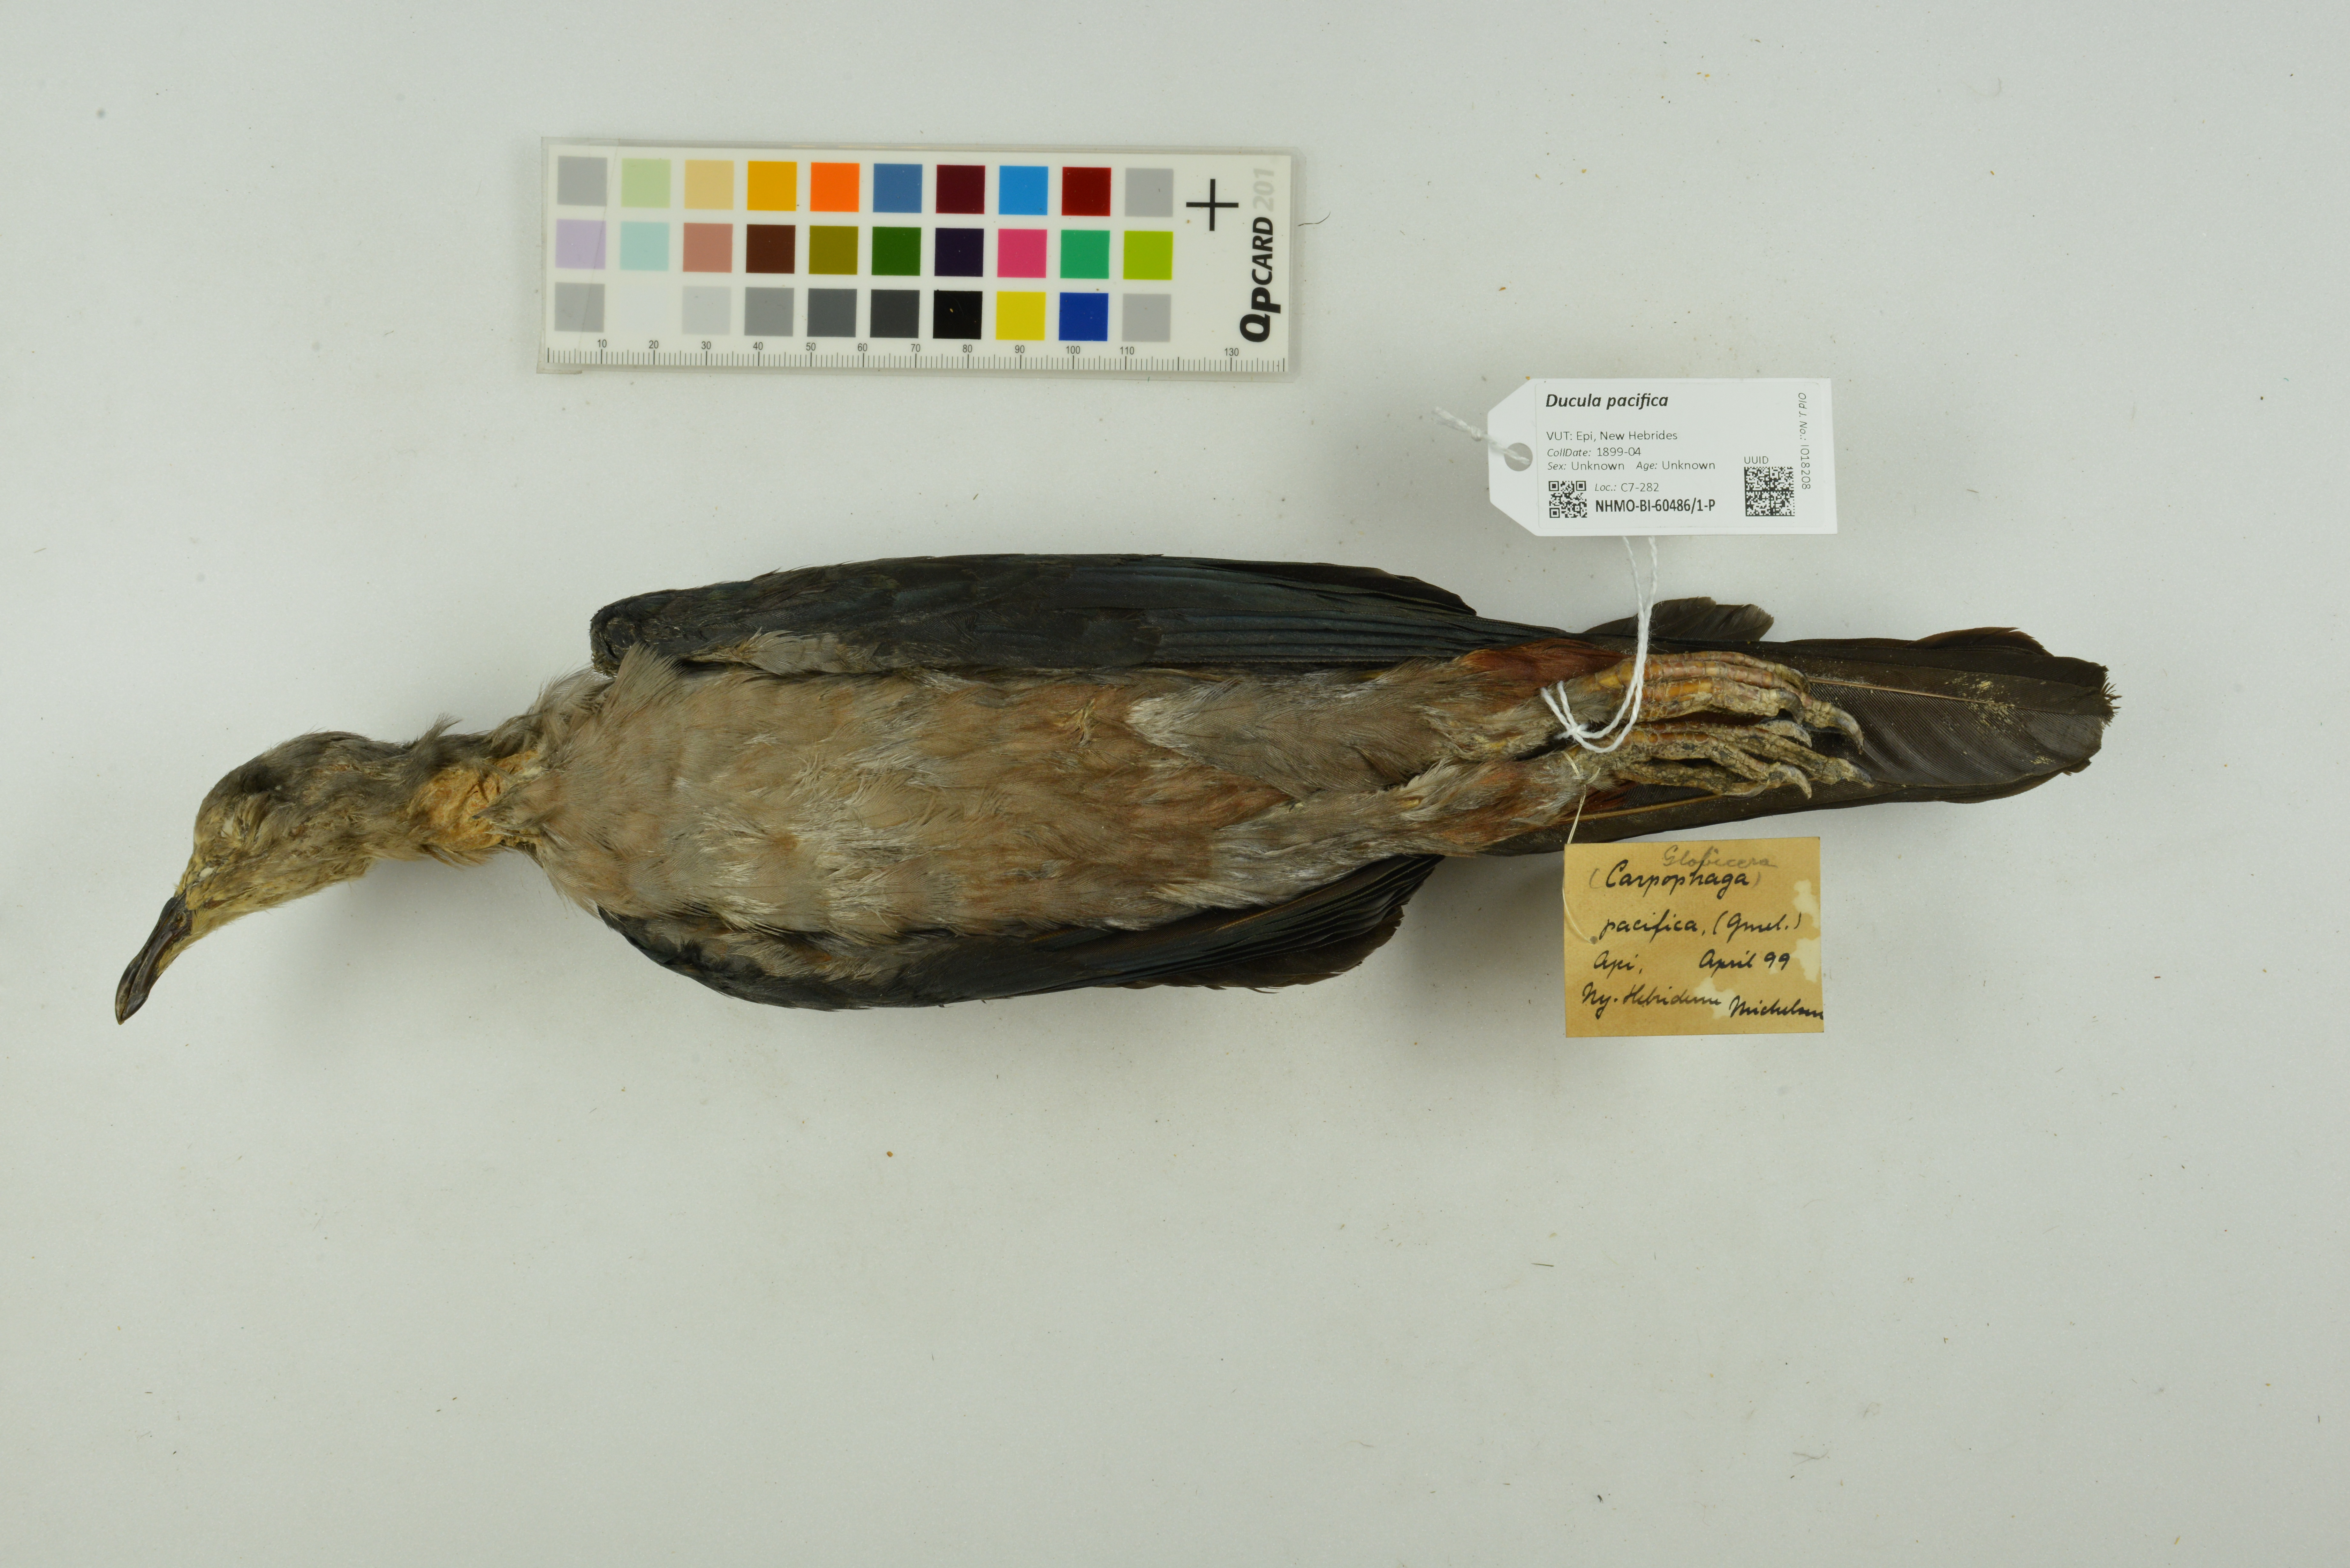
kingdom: Animalia
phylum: Chordata
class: Aves
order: Columbiformes
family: Columbidae
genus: Ducula
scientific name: Ducula pacifica
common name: Pacific imperial-pigeon
